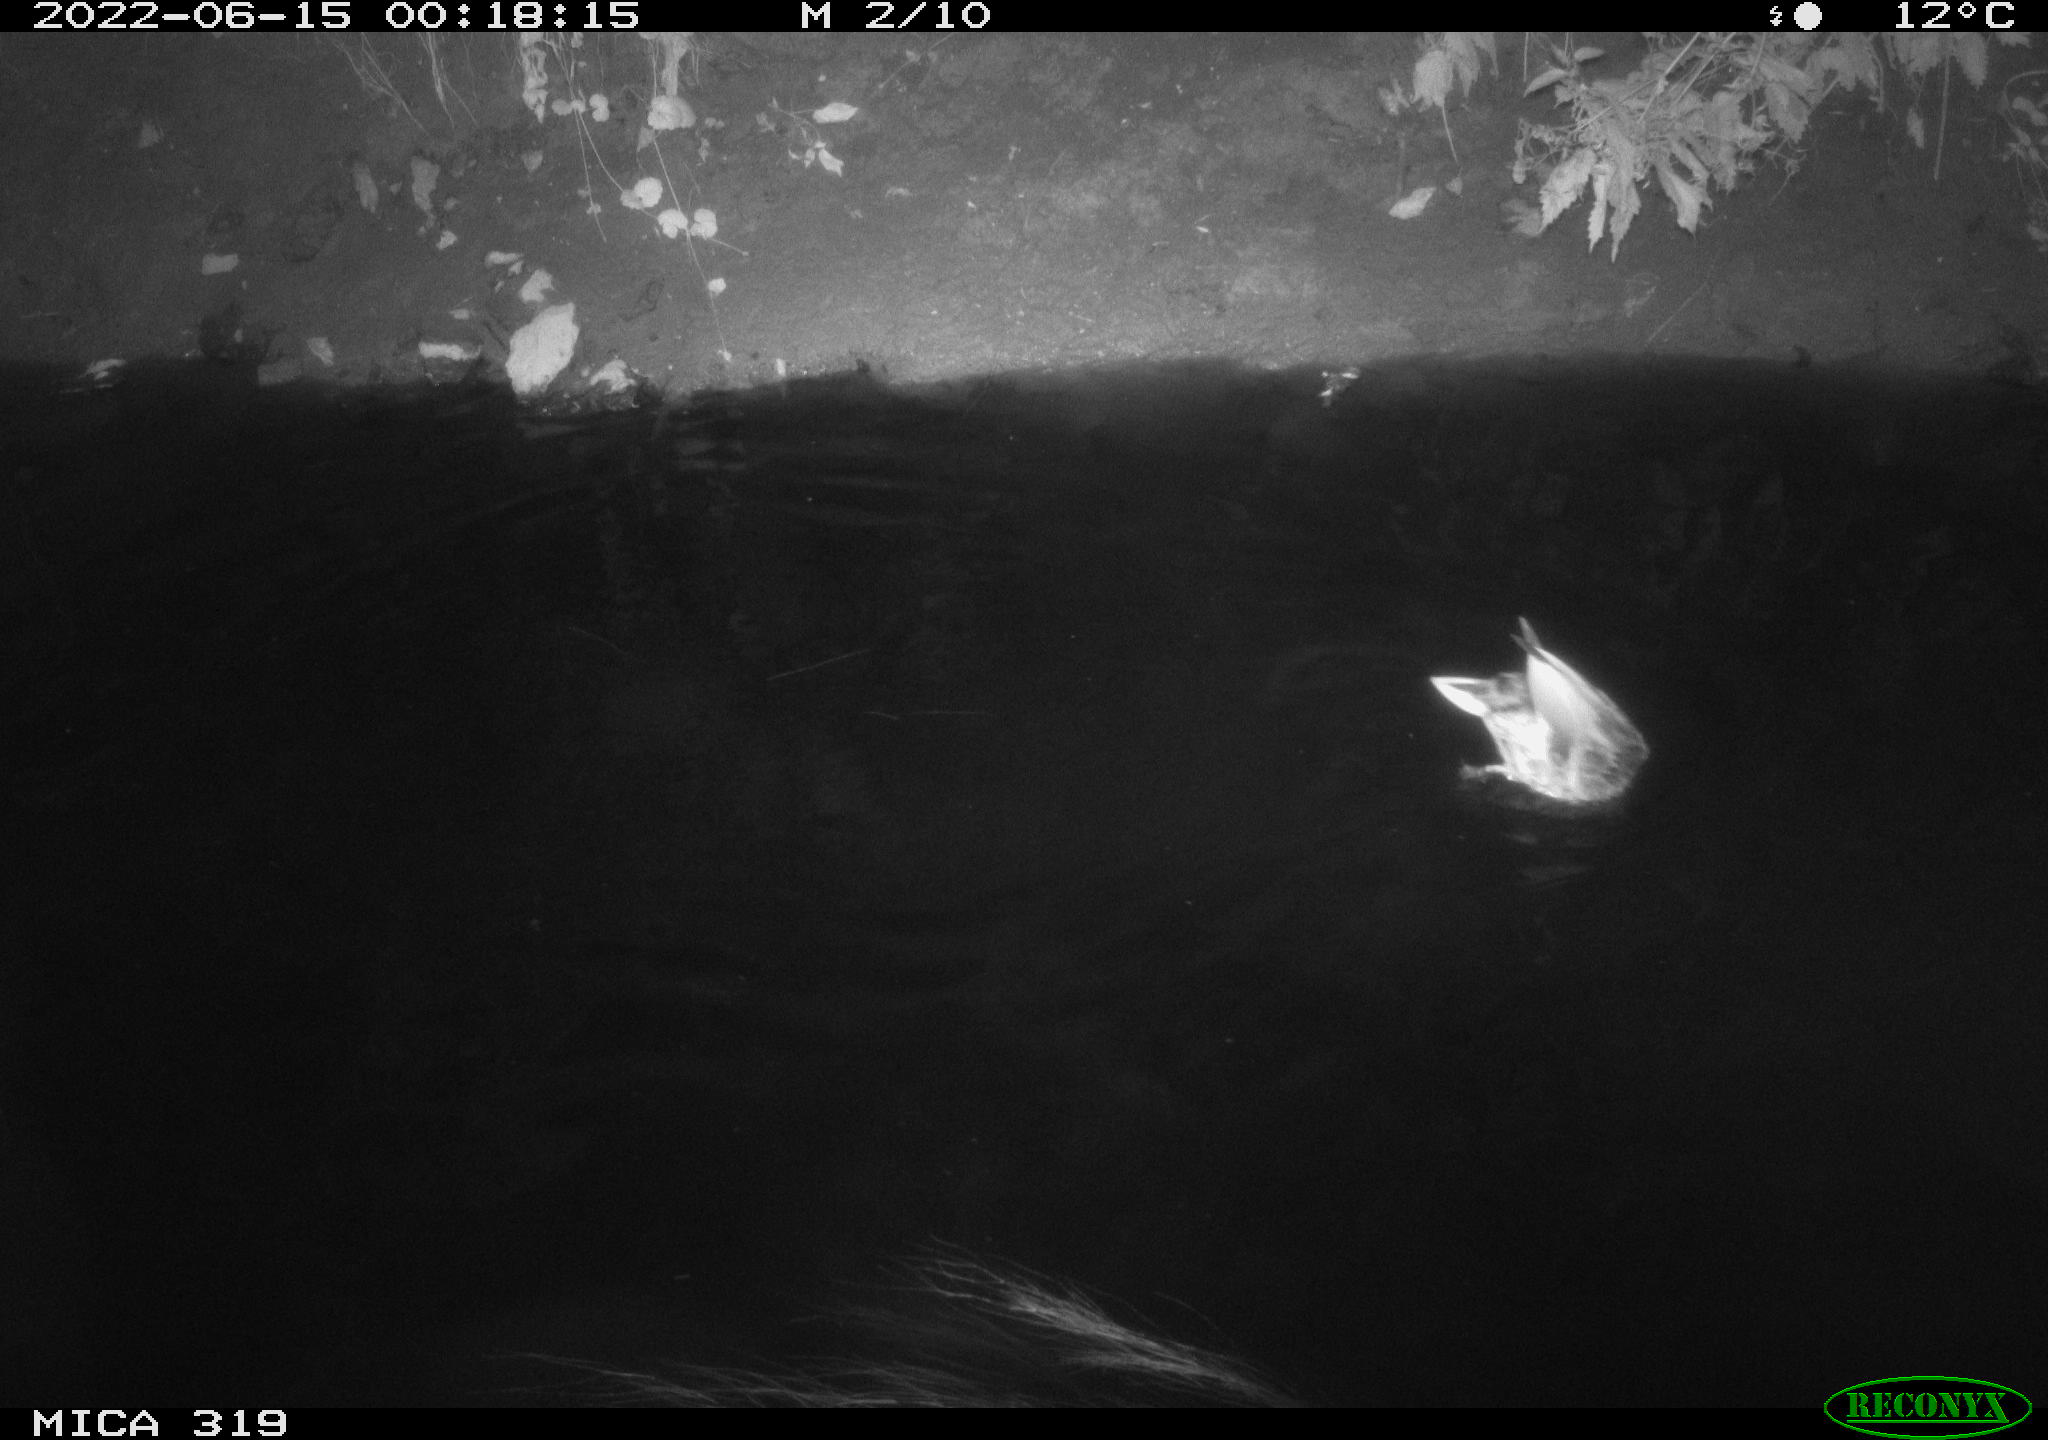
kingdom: Animalia
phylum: Chordata
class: Aves
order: Anseriformes
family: Anatidae
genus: Anas
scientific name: Anas
